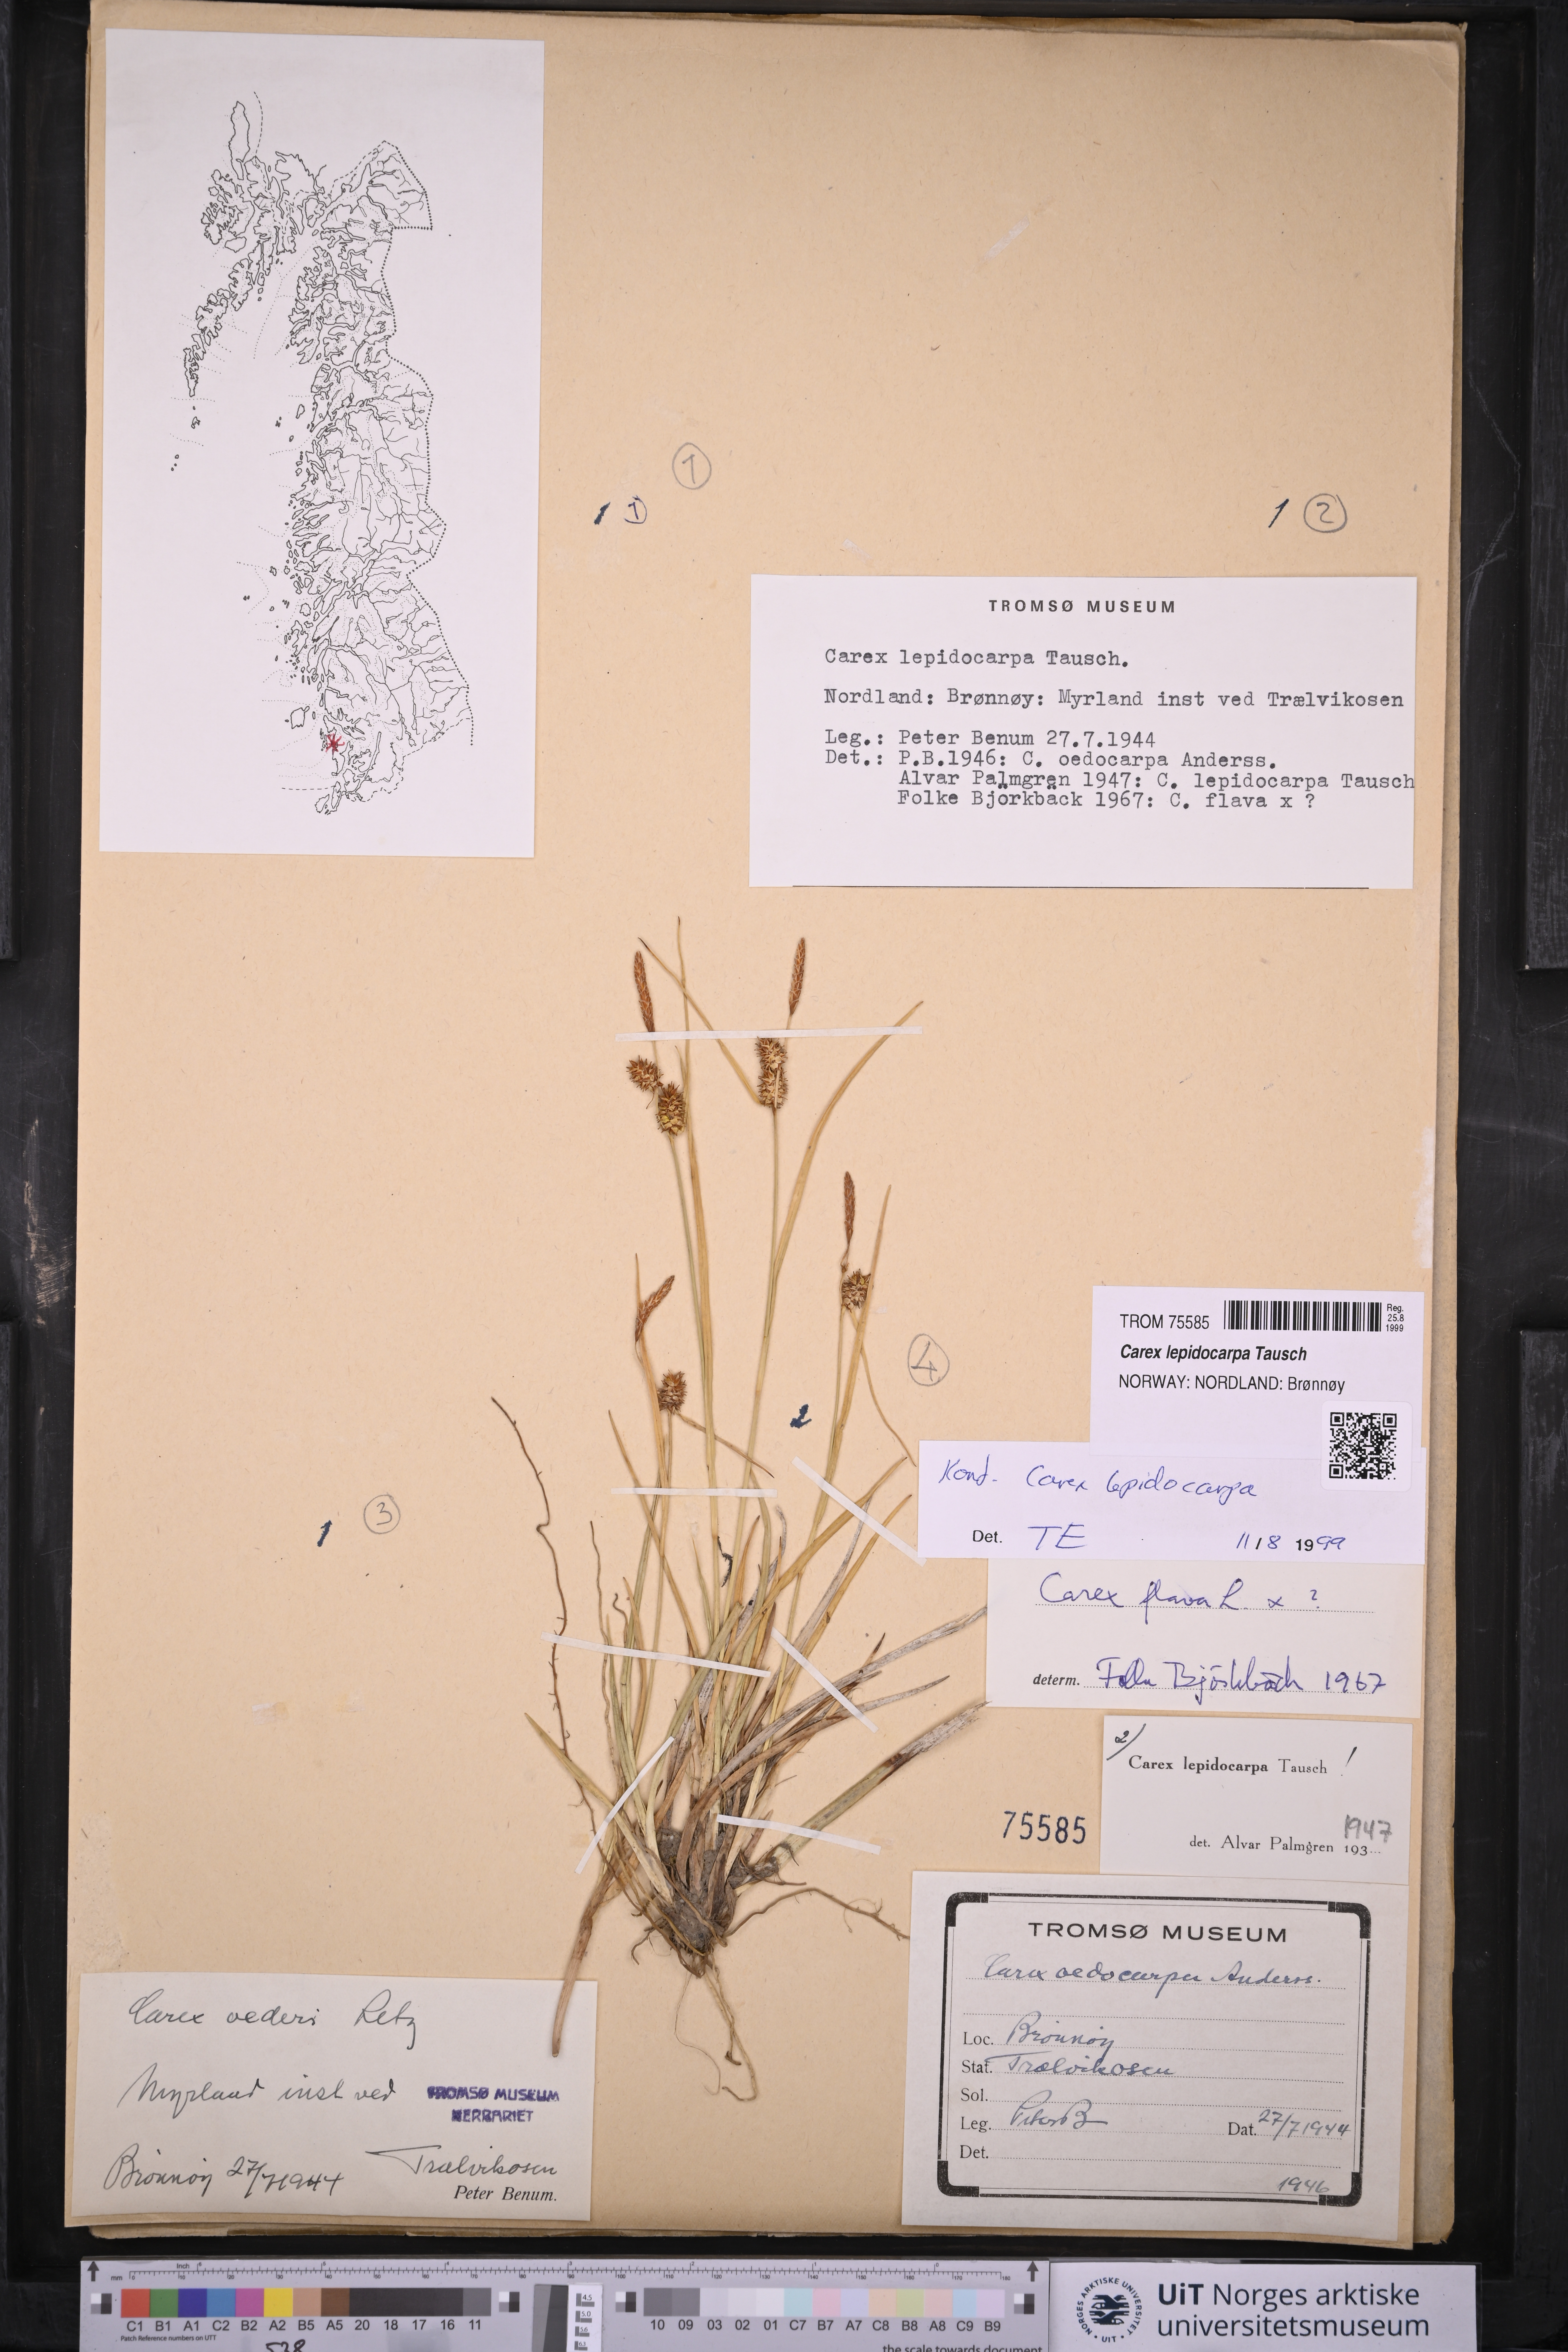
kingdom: Plantae
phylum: Tracheophyta
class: Liliopsida
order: Poales
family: Cyperaceae
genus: Carex
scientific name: Carex lepidocarpa
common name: Long-stalked yellow-sedge
